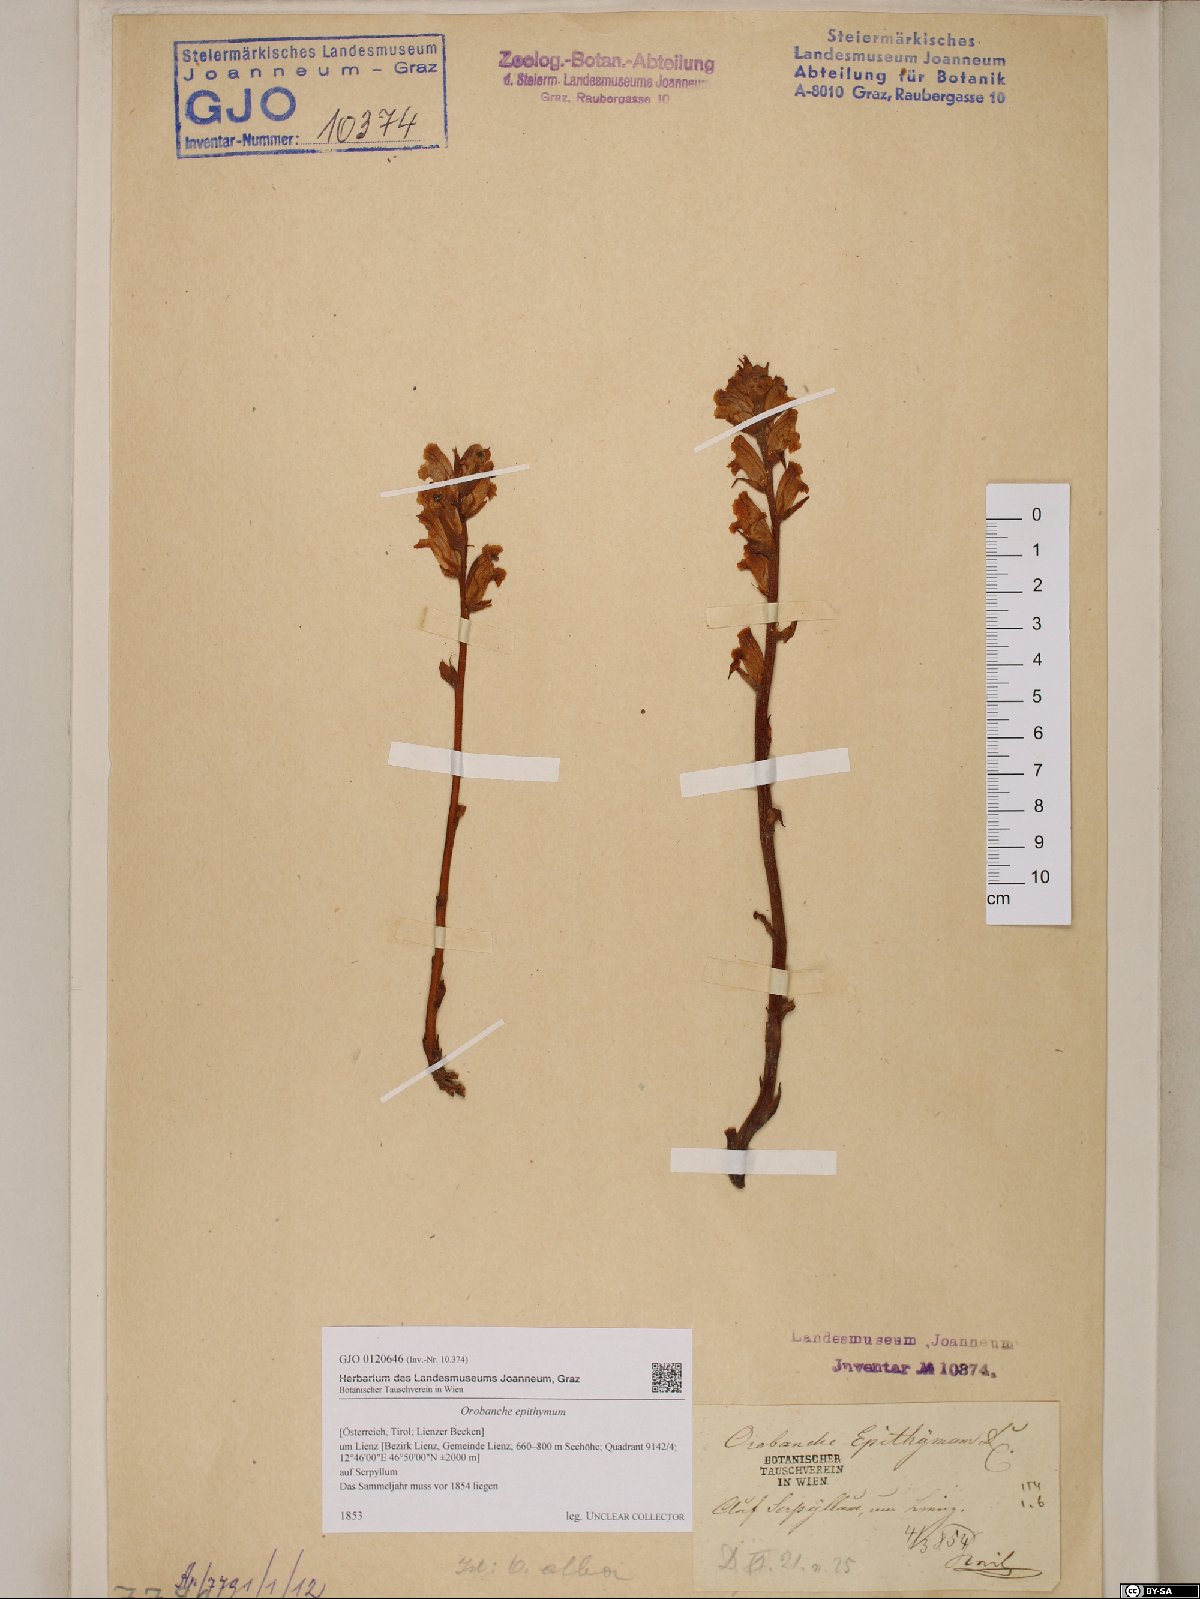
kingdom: Plantae
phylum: Tracheophyta
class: Magnoliopsida
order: Lamiales
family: Orobanchaceae
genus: Orobanche
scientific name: Orobanche alba
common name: Thyme broomrape
